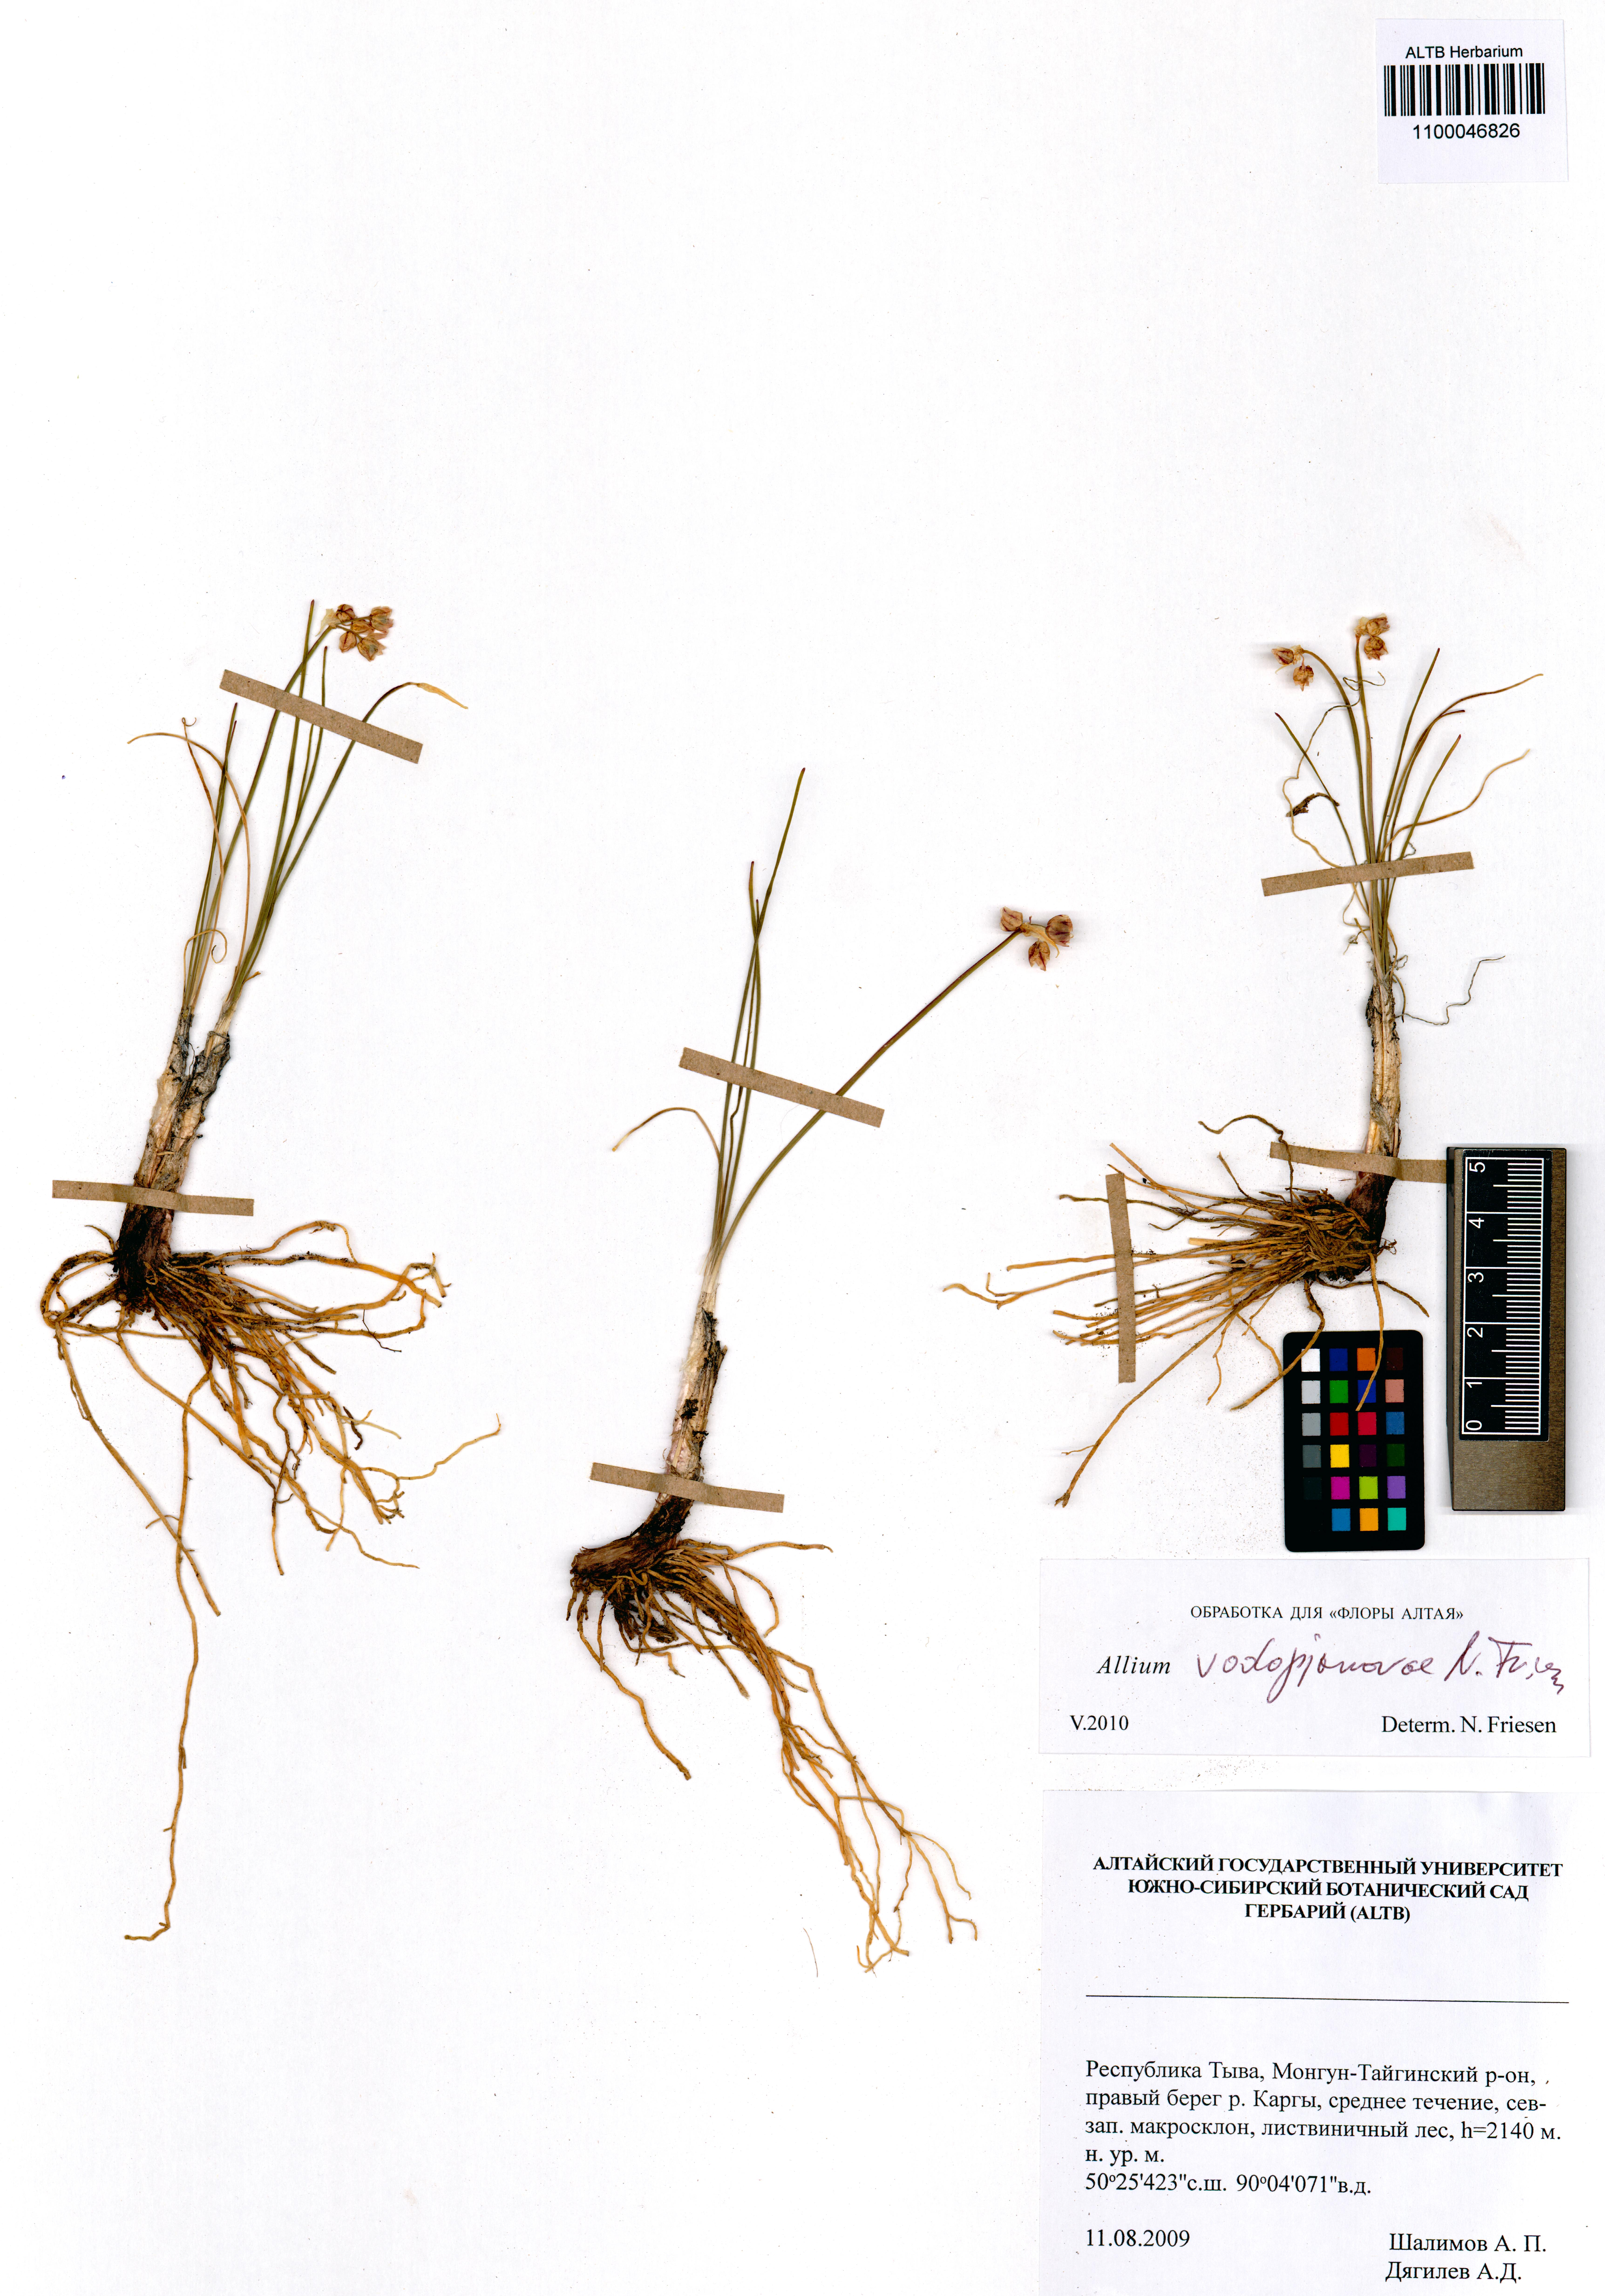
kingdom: Plantae
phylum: Tracheophyta
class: Liliopsida
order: Asparagales
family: Amaryllidaceae
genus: Allium
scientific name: Allium vodopjanovae
